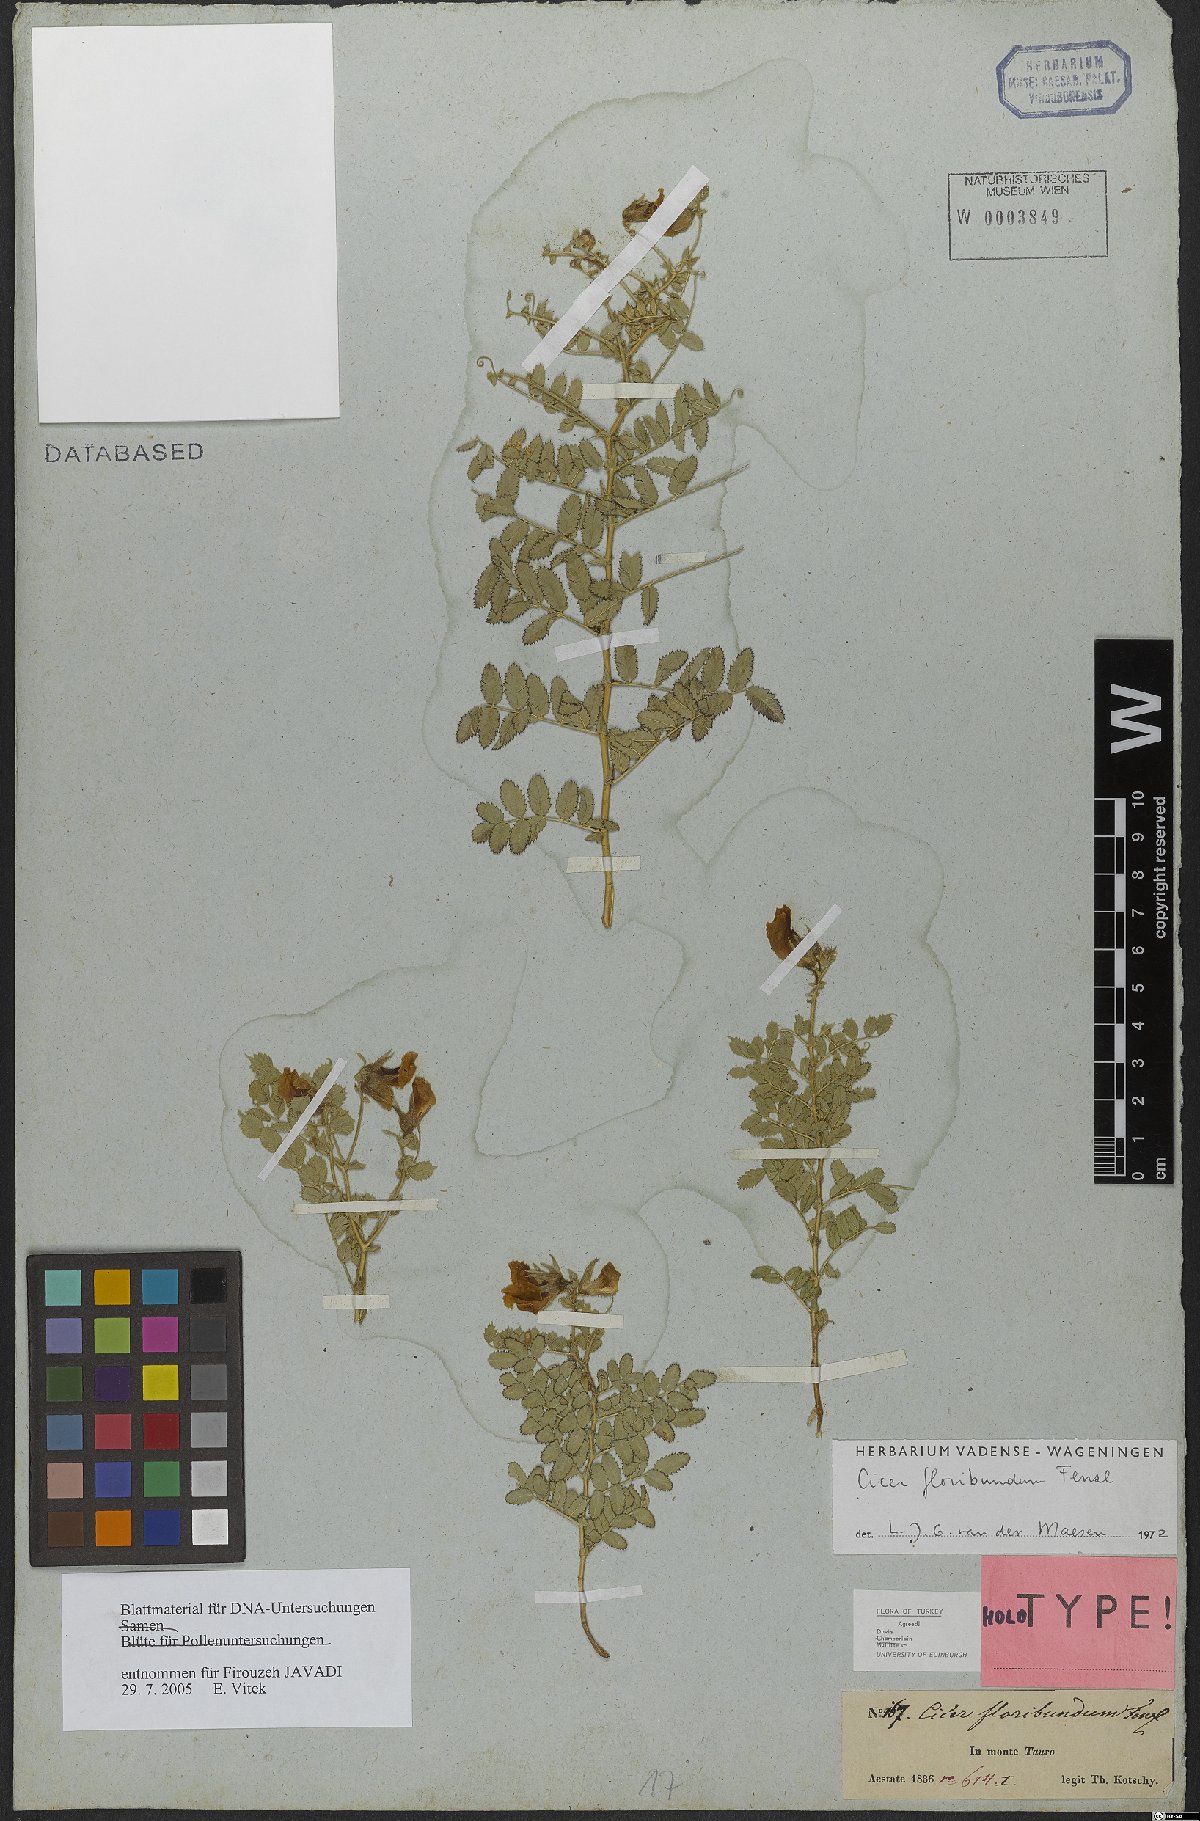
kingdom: Plantae
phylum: Tracheophyta
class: Magnoliopsida
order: Fabales
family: Fabaceae
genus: Cicer
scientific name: Cicer floribundum
